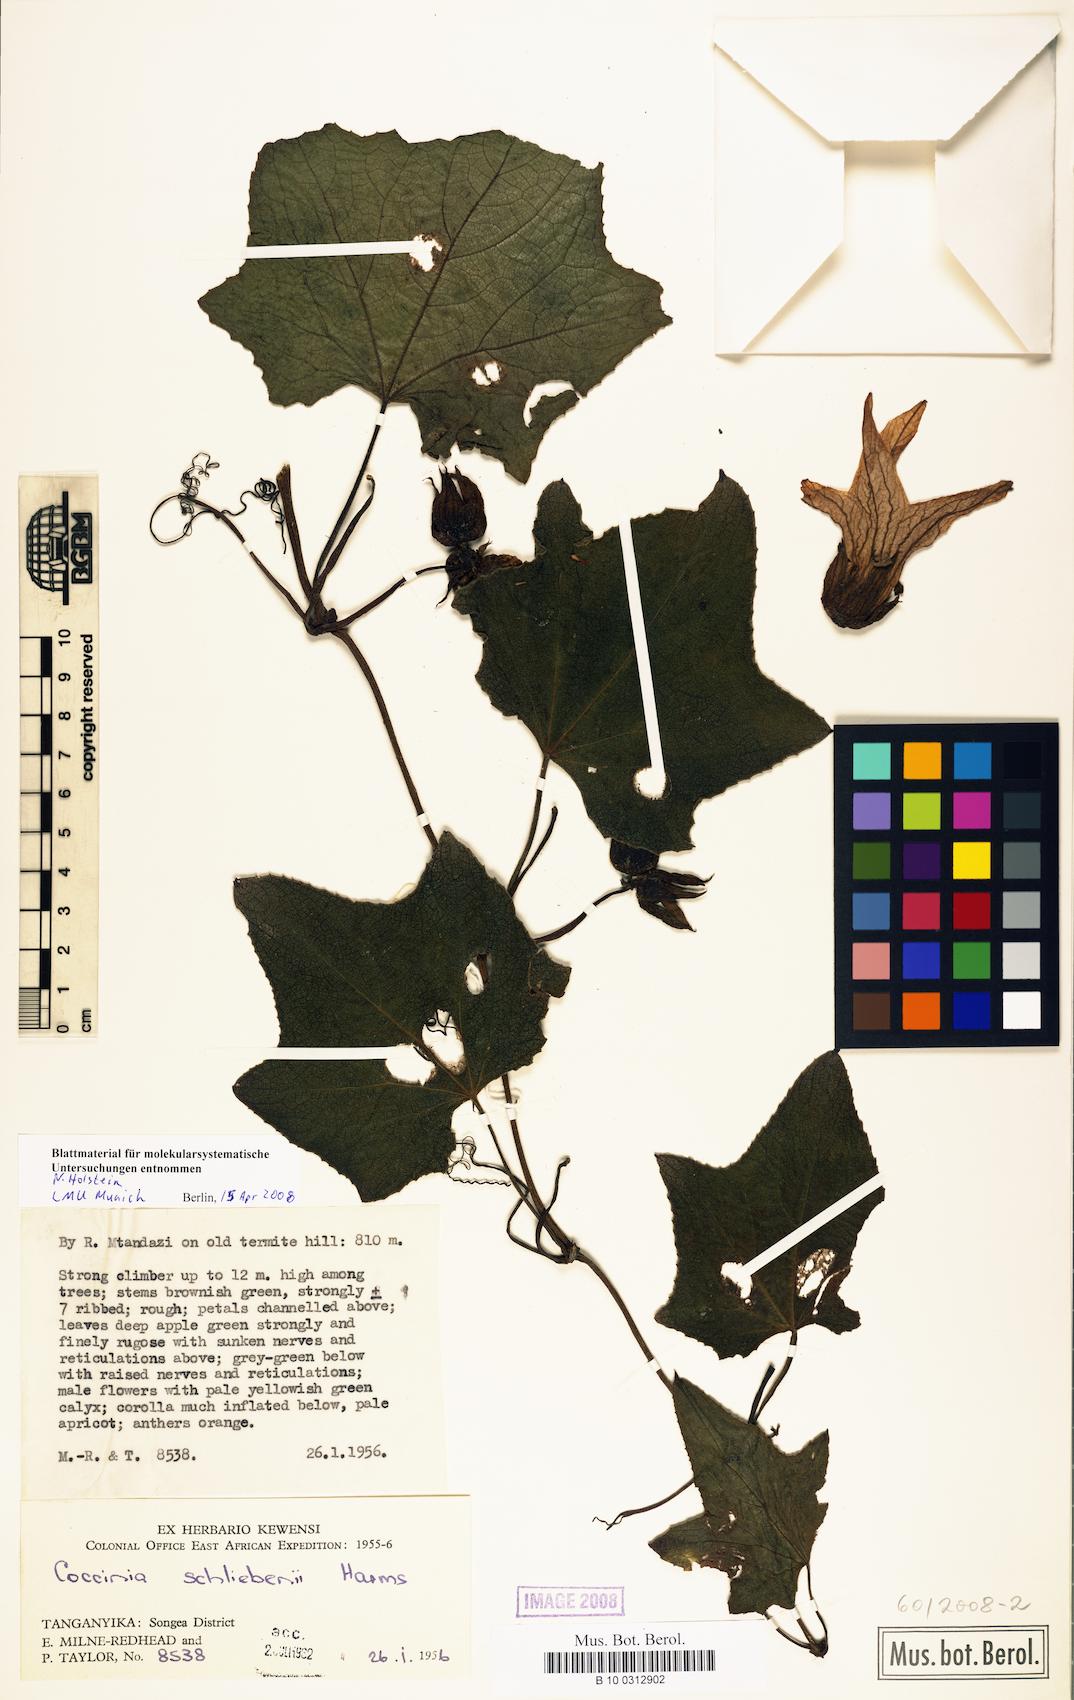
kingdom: Plantae
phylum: Tracheophyta
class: Magnoliopsida
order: Cucurbitales
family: Cucurbitaceae
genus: Coccinia
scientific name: Coccinia schliebenii
